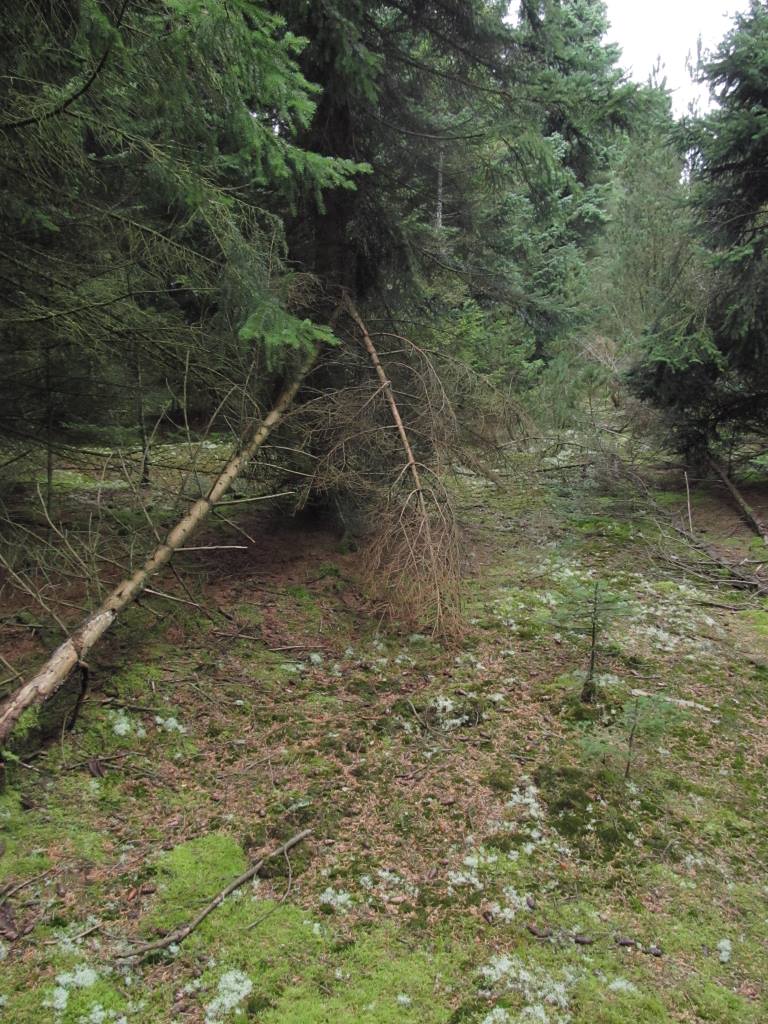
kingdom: Fungi
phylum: Basidiomycota
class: Agaricomycetes
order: Agaricales
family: Tricholomataceae
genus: Tricholoma
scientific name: Tricholoma apium
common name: suppe-ridderhat
